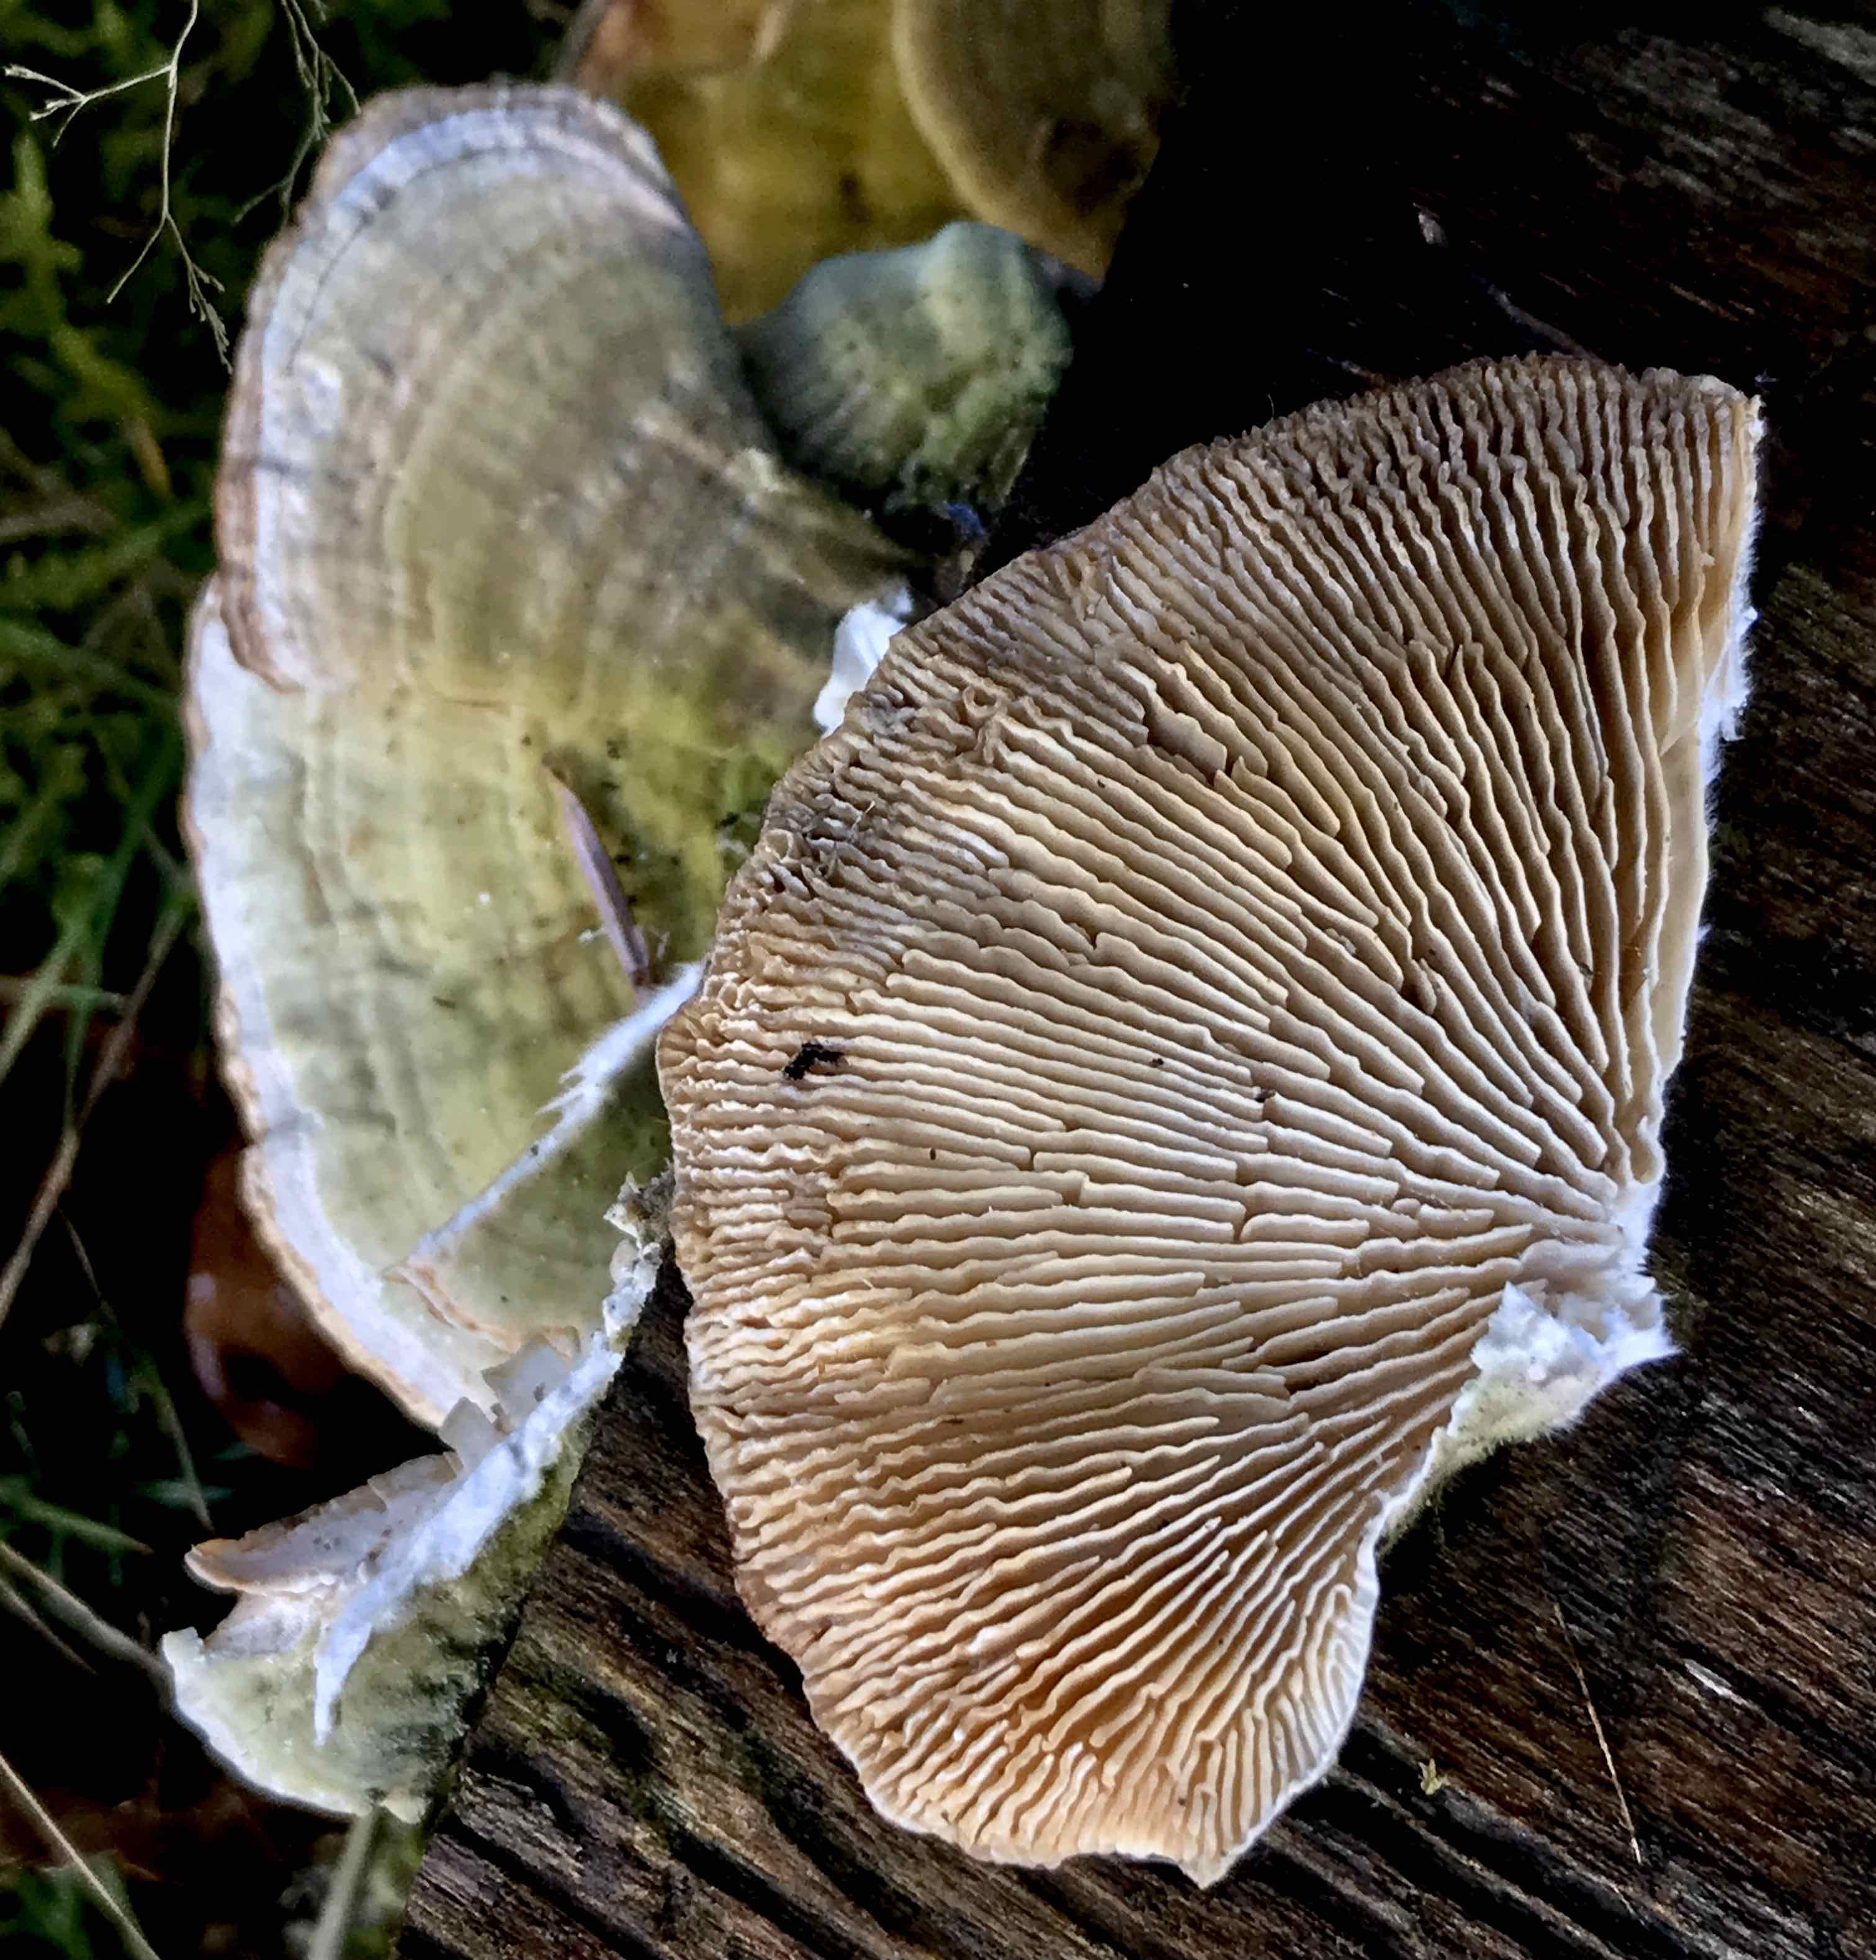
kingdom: Fungi
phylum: Basidiomycota
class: Agaricomycetes
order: Polyporales
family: Polyporaceae
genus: Lenzites
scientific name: Lenzites betulinus
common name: birke-læderporesvamp
